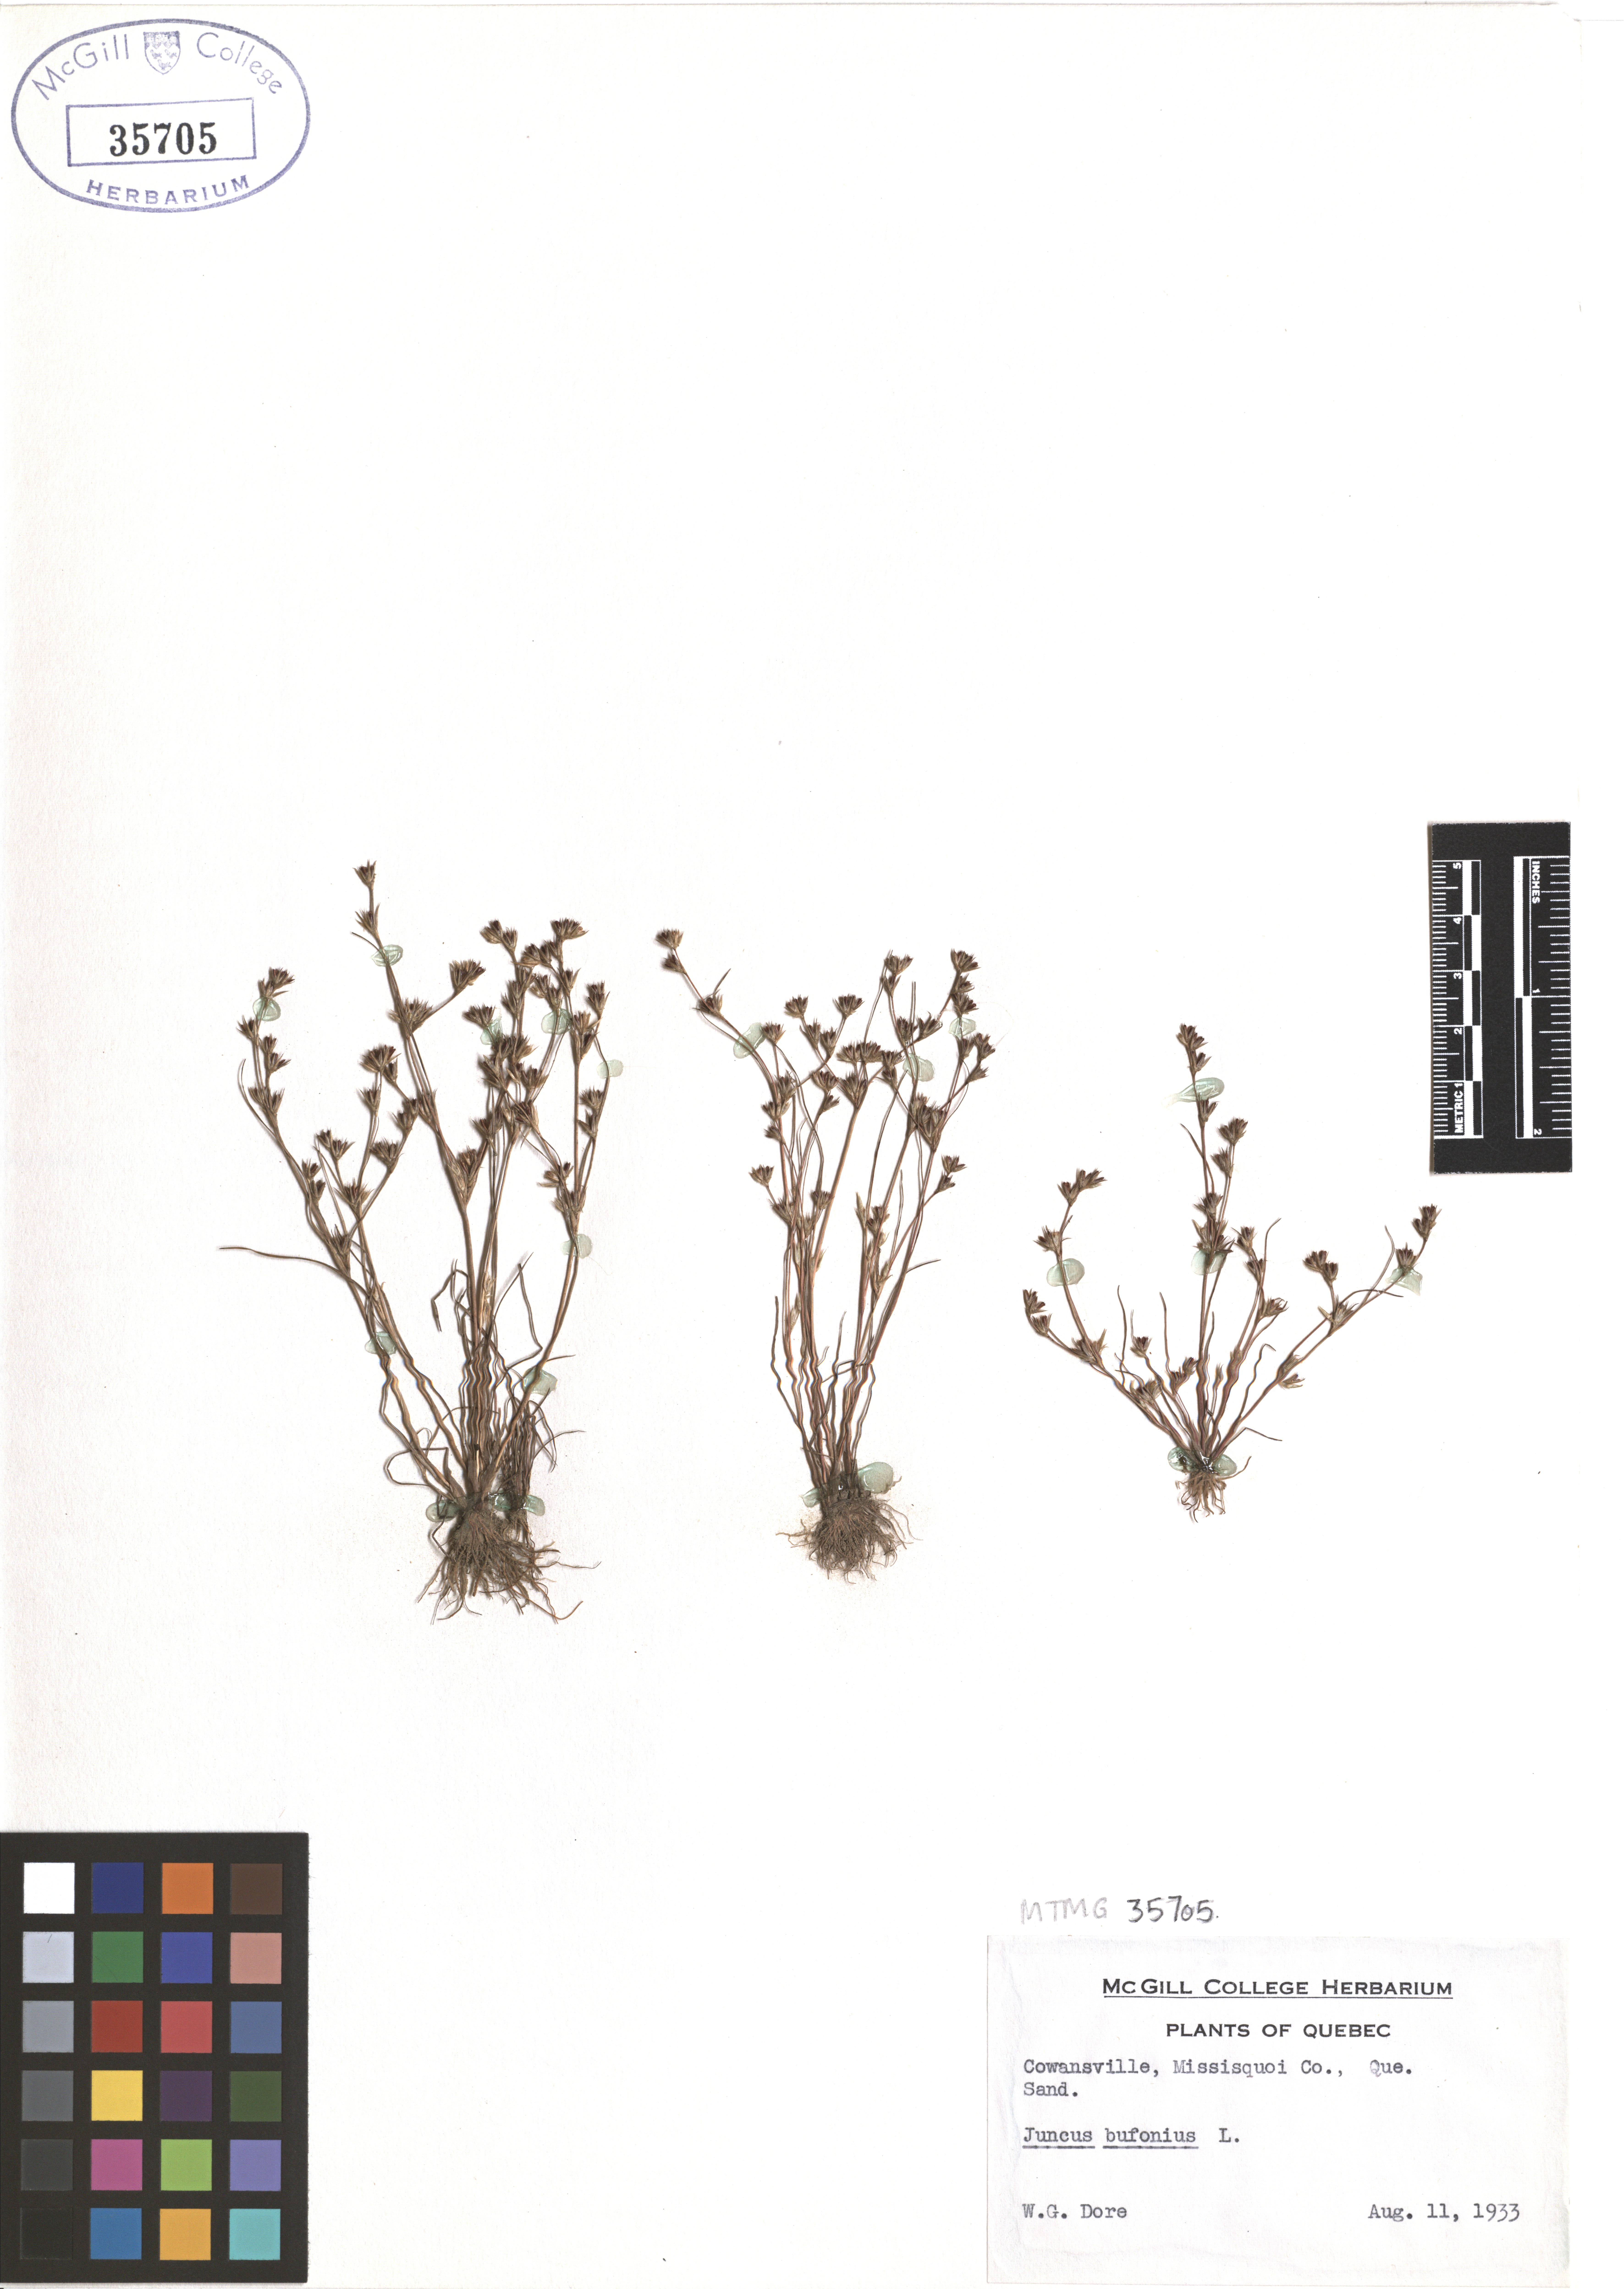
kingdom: Plantae
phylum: Tracheophyta
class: Liliopsida
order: Poales
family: Juncaceae
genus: Juncus
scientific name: Juncus bufonius
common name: Toad rush
